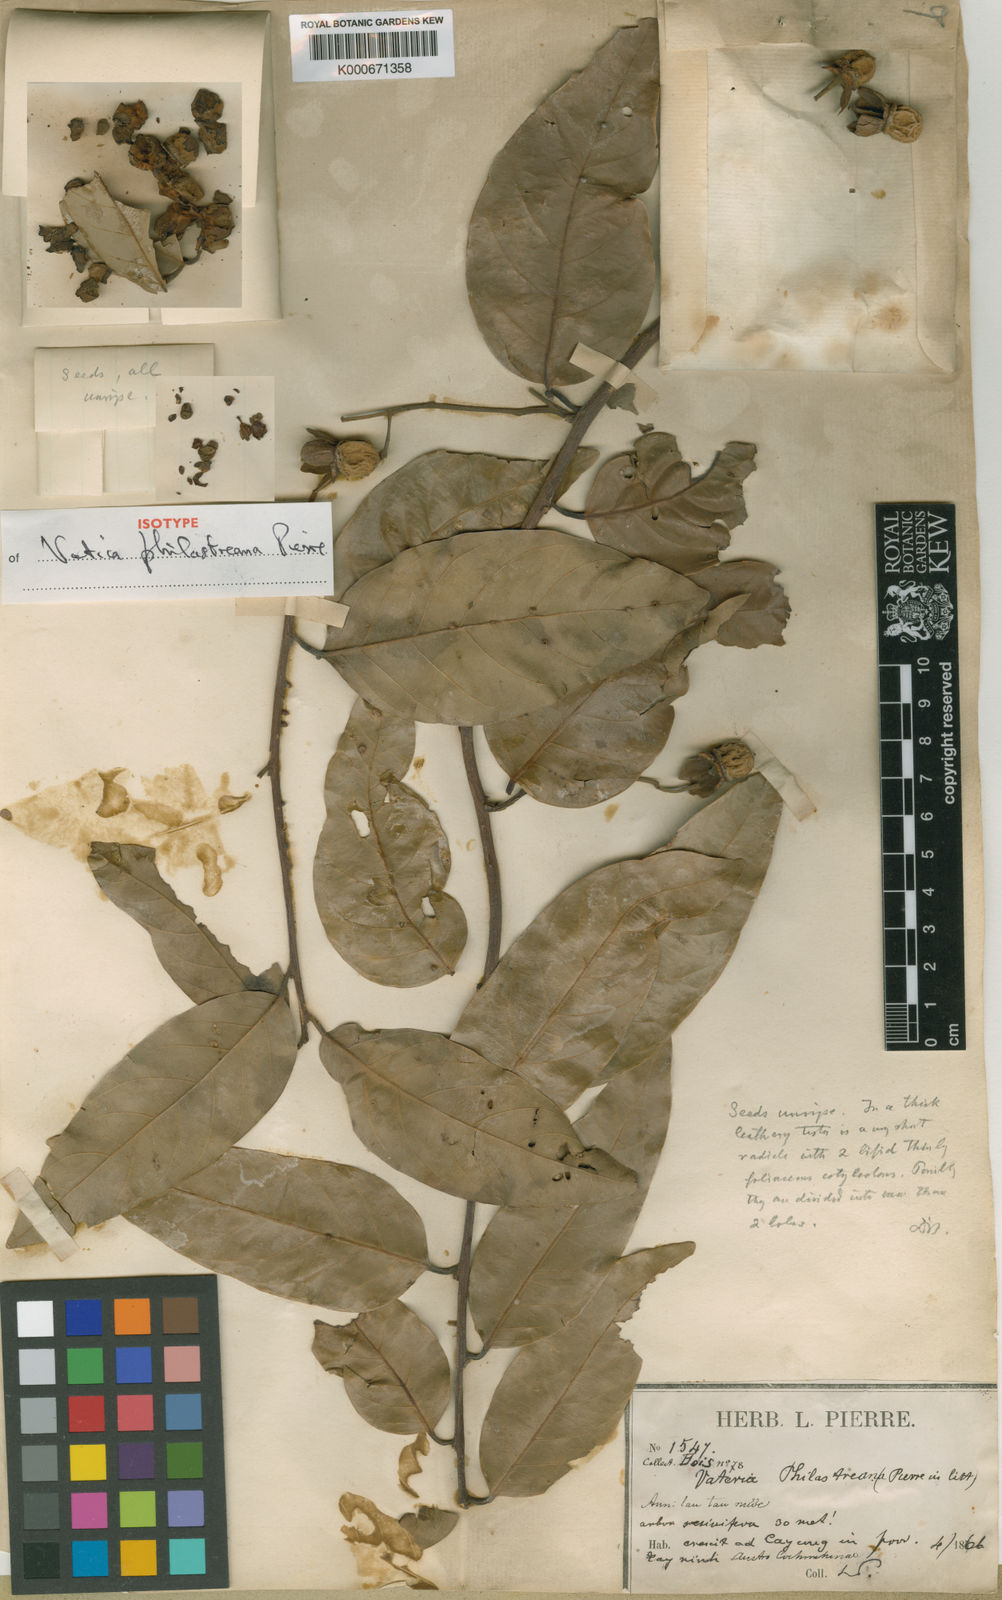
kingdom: Plantae
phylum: Tracheophyta
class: Magnoliopsida
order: Malvales
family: Dipterocarpaceae
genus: Vatica
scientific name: Vatica philastreana
